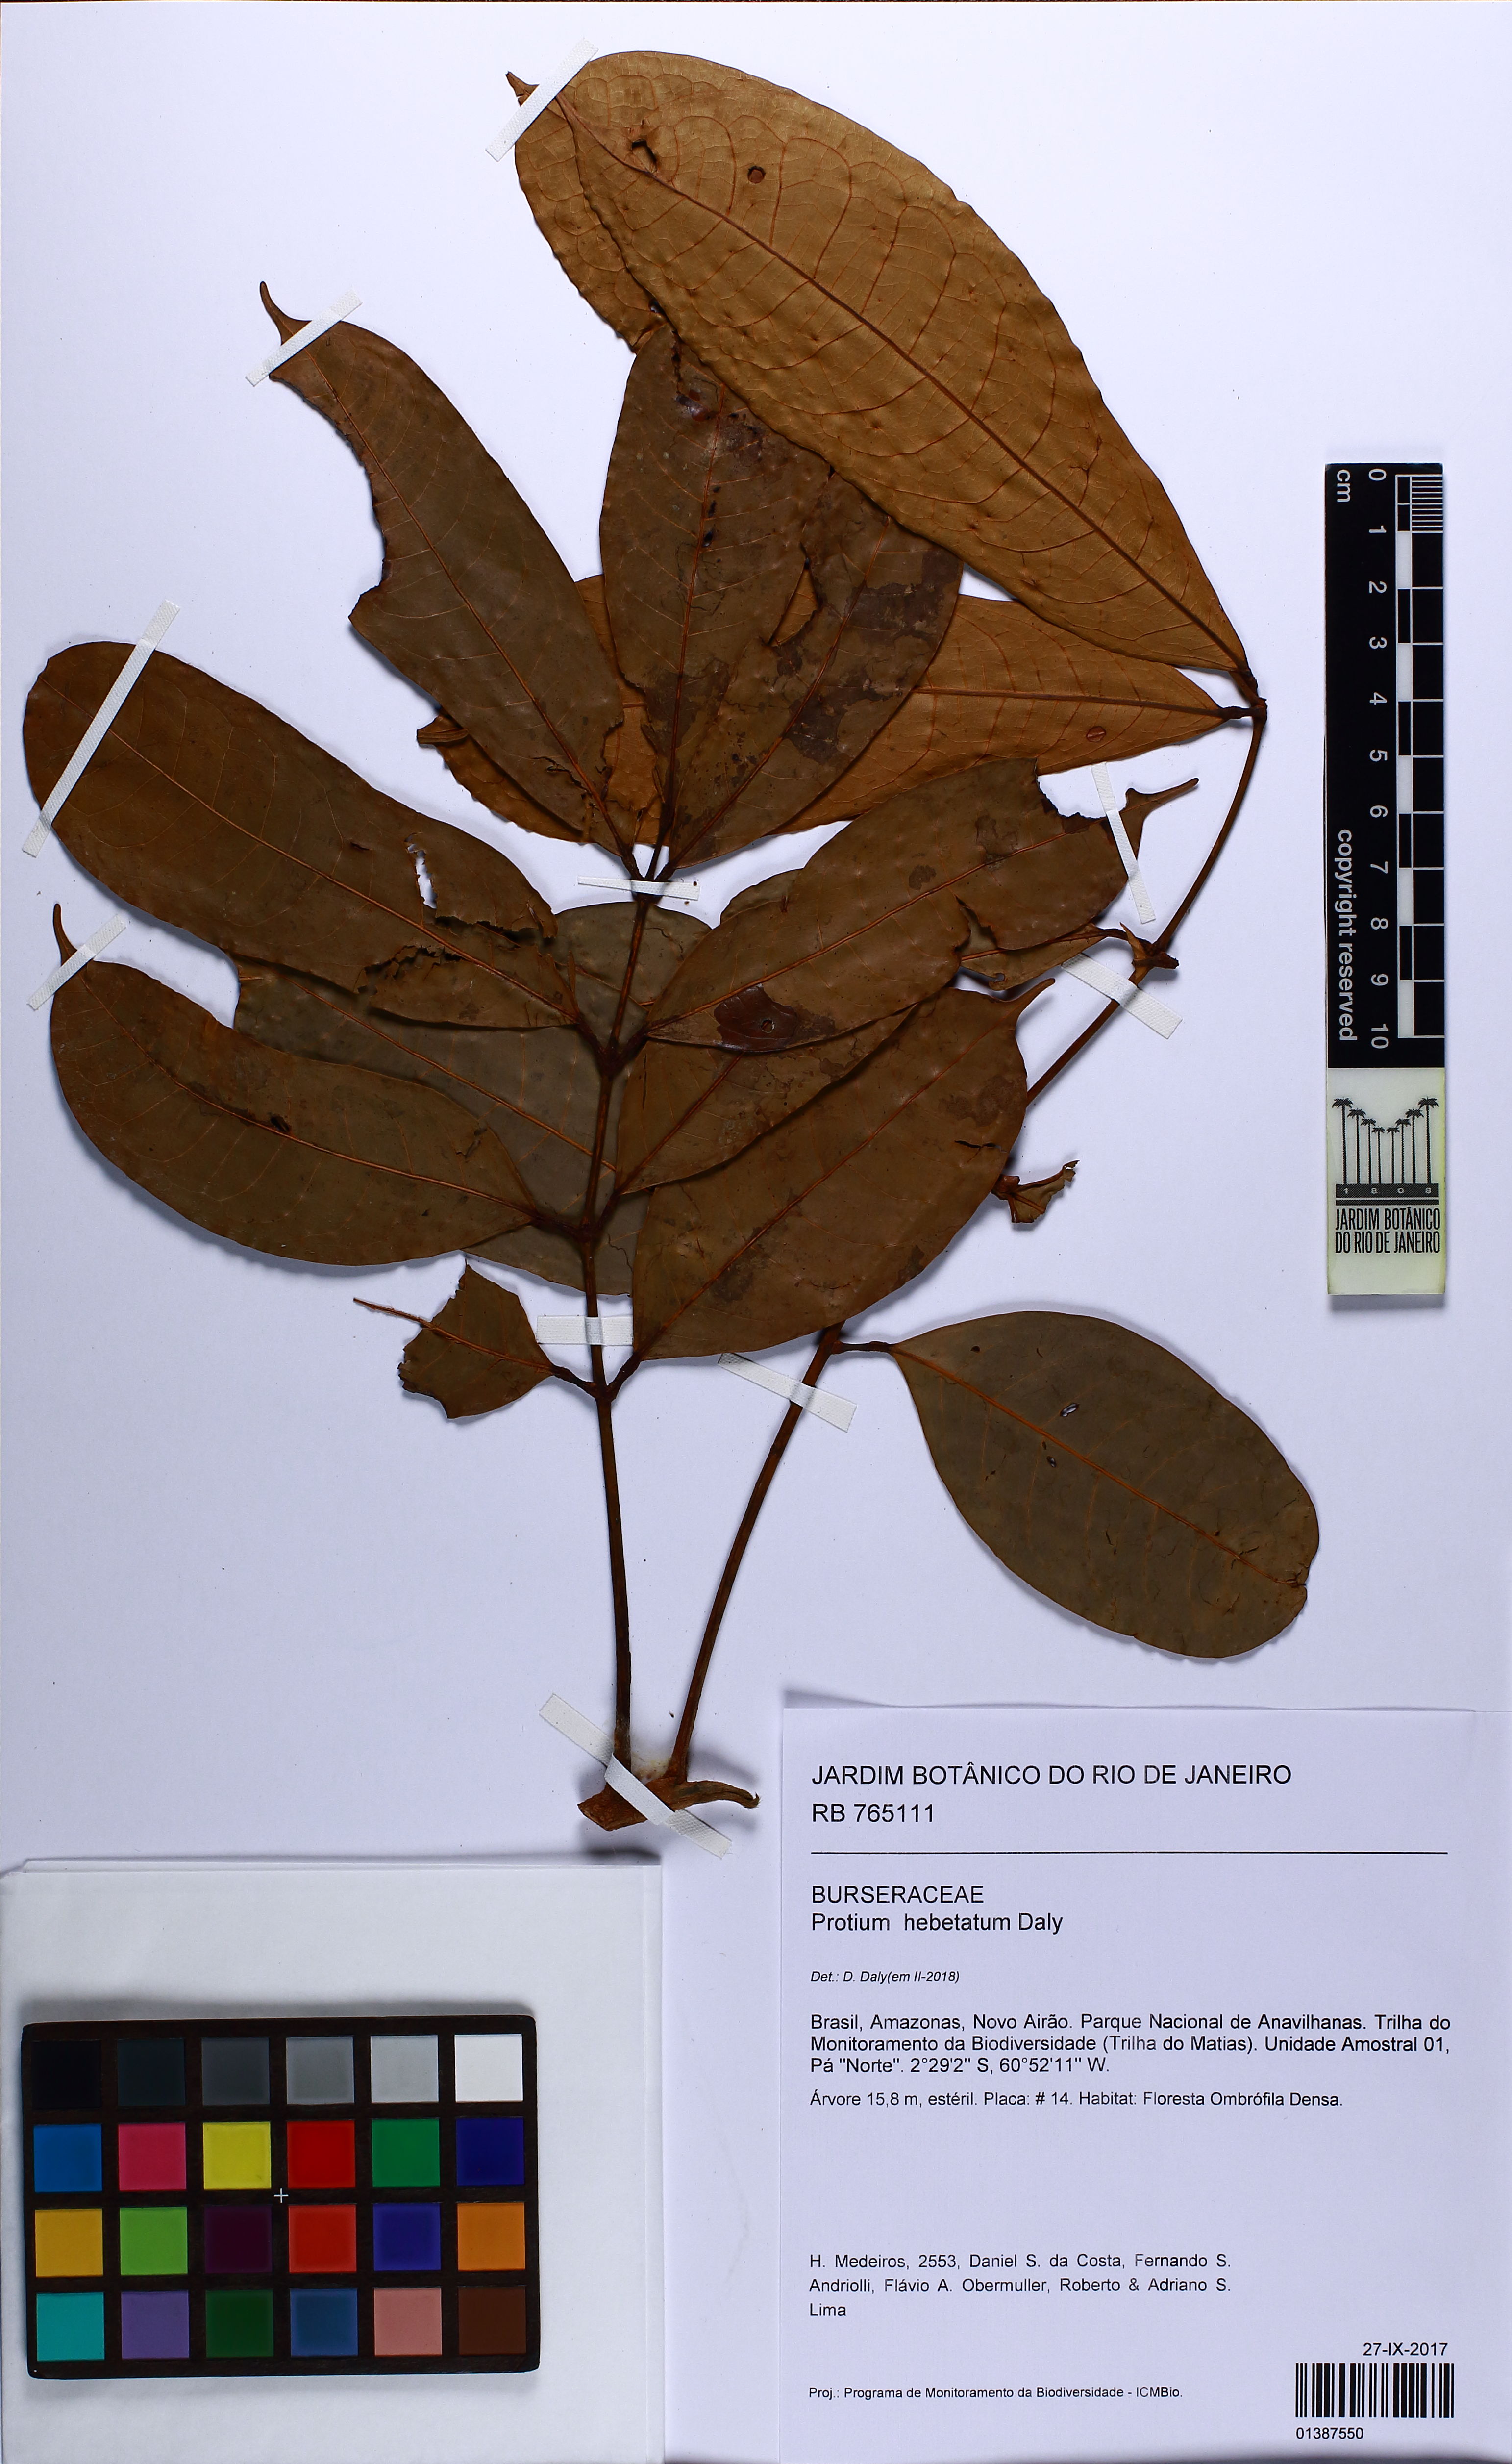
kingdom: Plantae
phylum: Tracheophyta
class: Magnoliopsida
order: Sapindales
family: Burseraceae
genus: Protium
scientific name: Protium hebetatum
